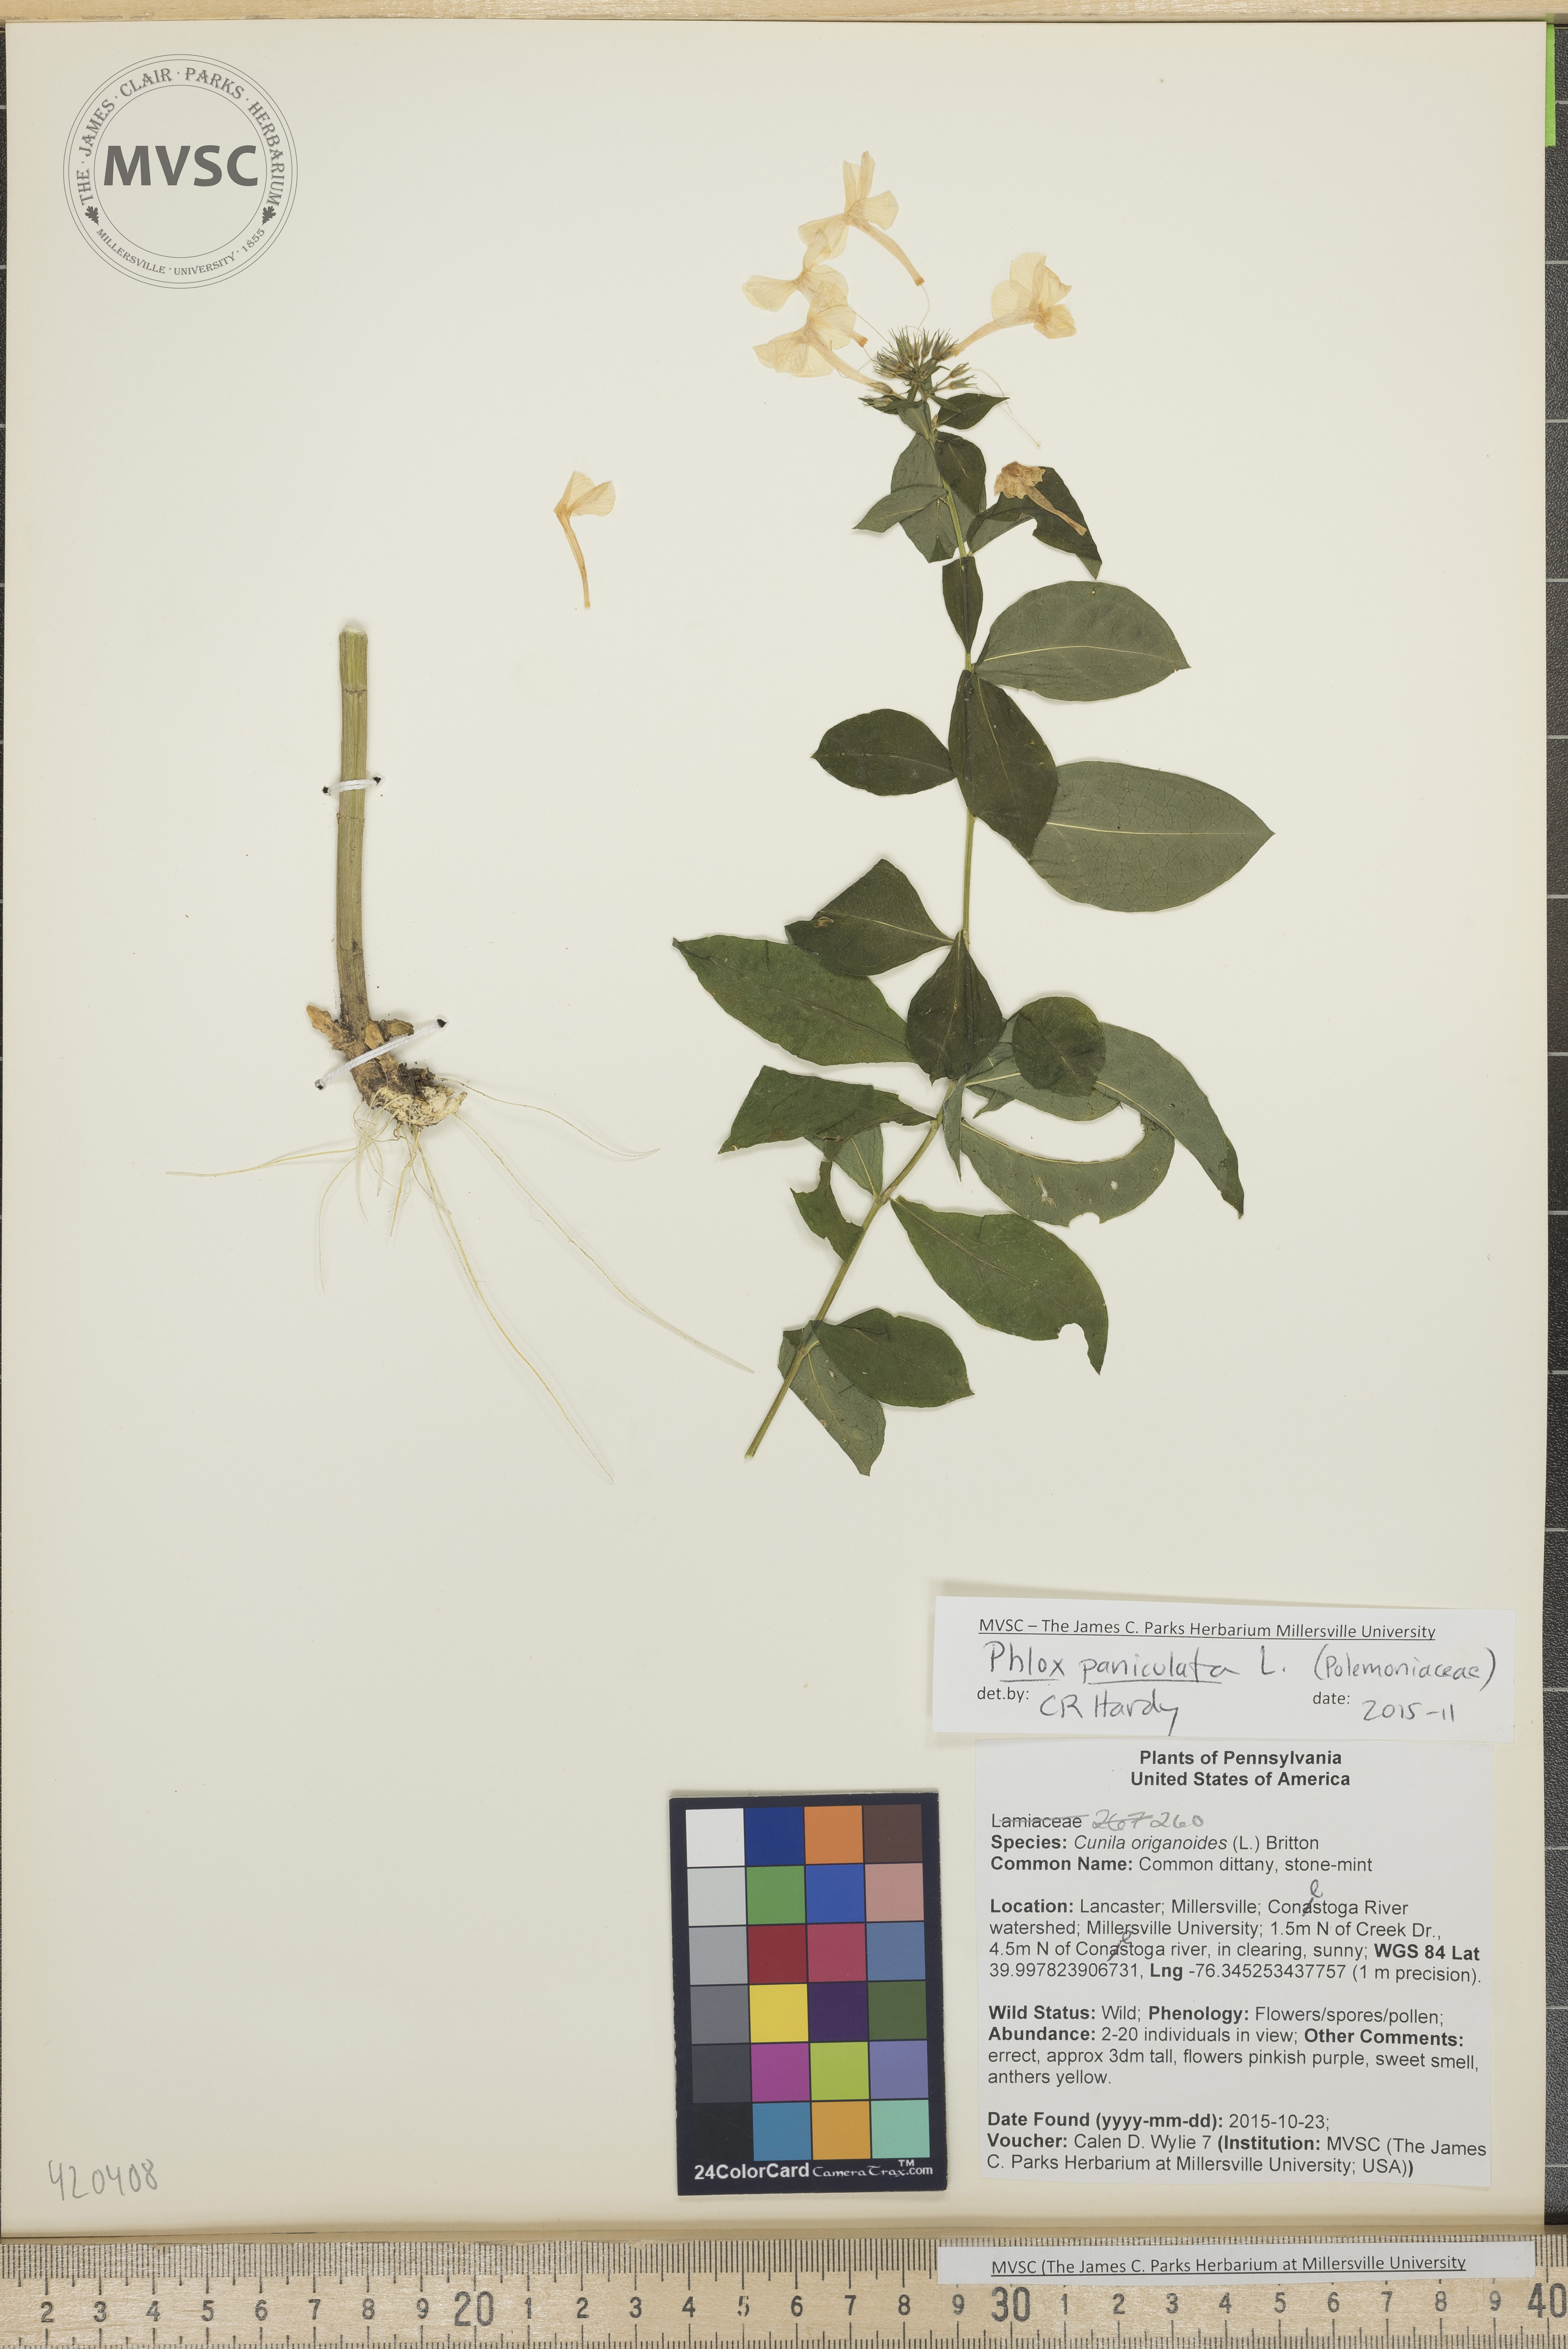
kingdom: Plantae
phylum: Tracheophyta
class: Magnoliopsida
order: Ericales
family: Polemoniaceae
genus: Phlox
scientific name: Phlox paniculata
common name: Summer phlox
